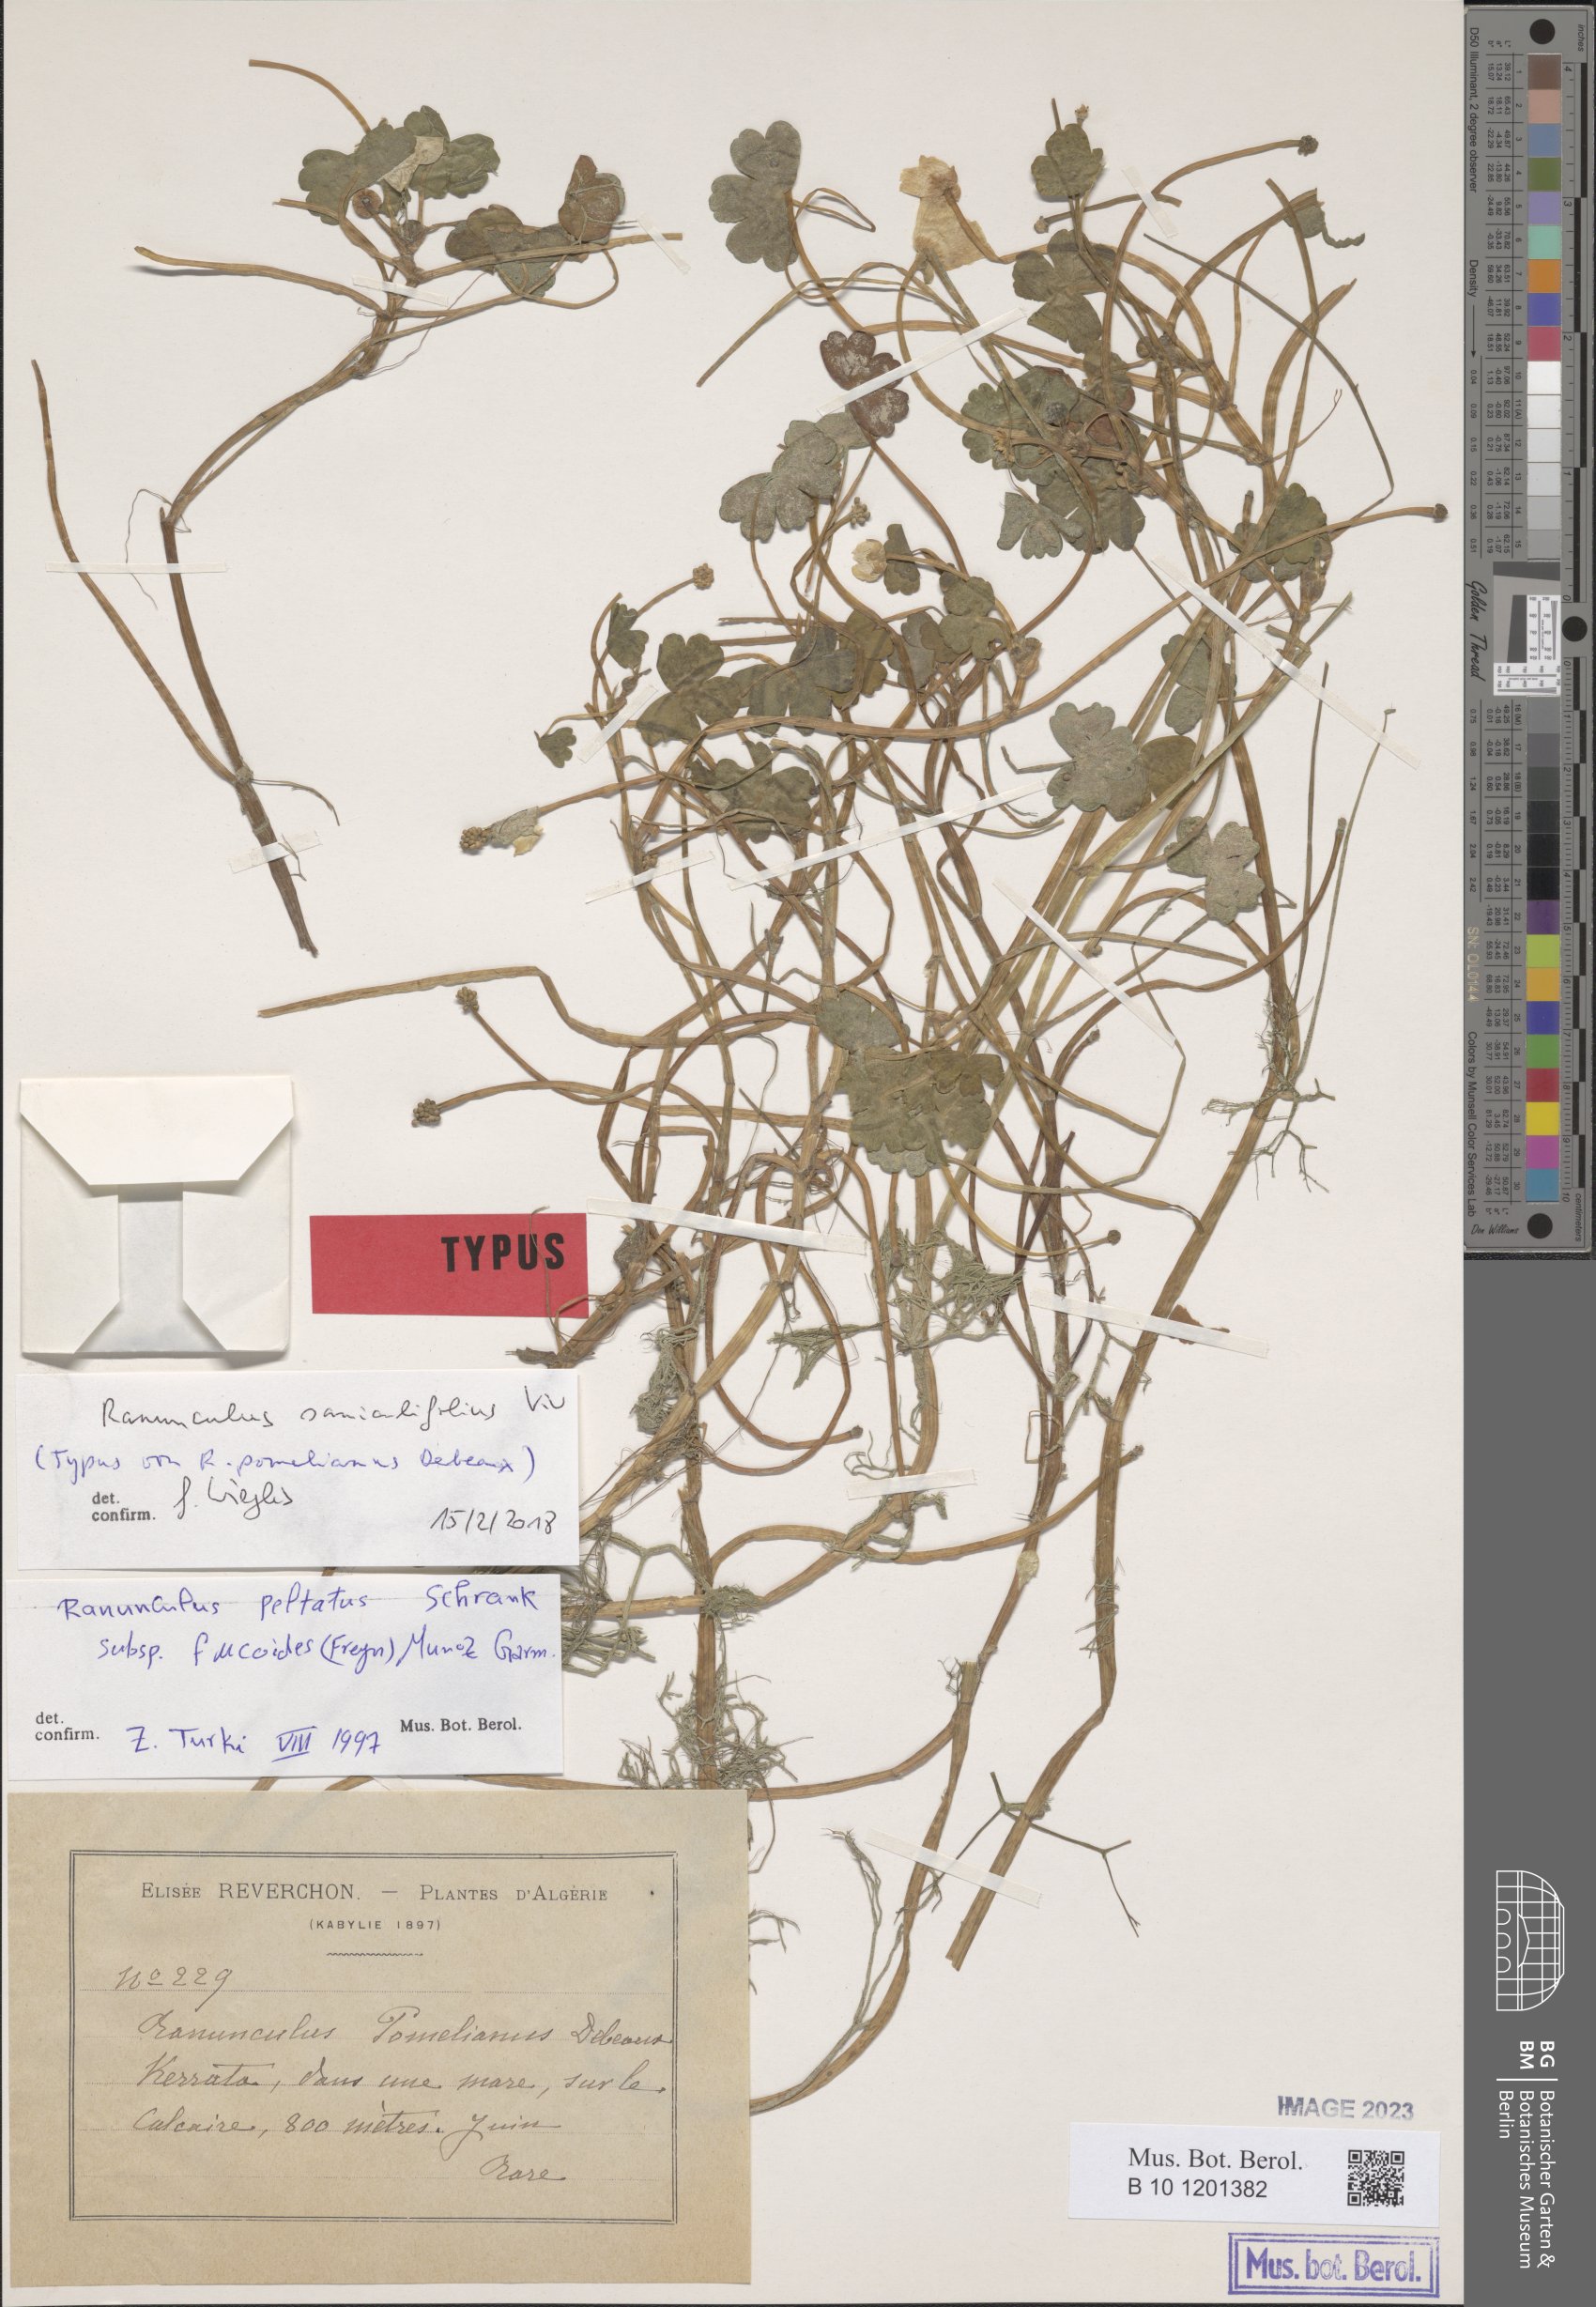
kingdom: Plantae
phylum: Tracheophyta
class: Magnoliopsida
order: Ranunculales
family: Ranunculaceae
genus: Ranunculus
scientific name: Ranunculus peltatus
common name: Pond water-crowfoot
